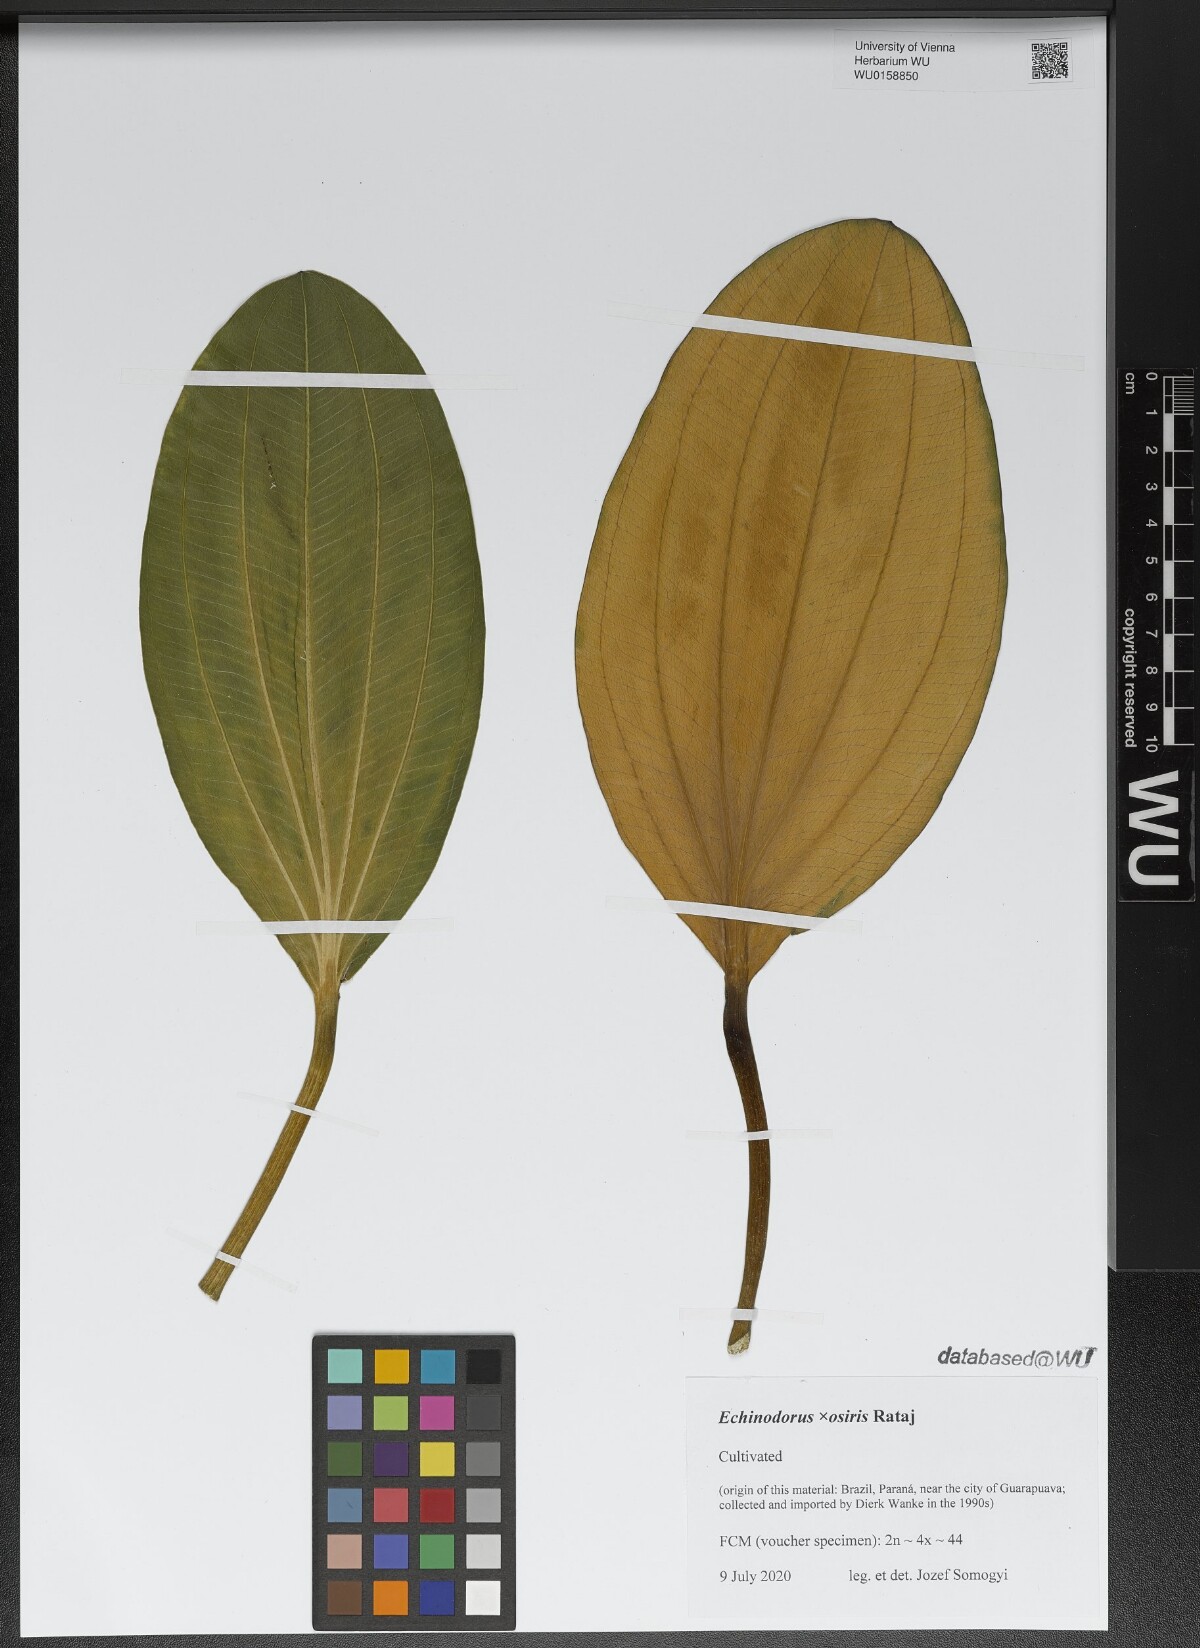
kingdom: Plantae
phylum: Tracheophyta
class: Liliopsida
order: Alismatales
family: Alismataceae
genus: Aquarius
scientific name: Aquarius uruguayensis
